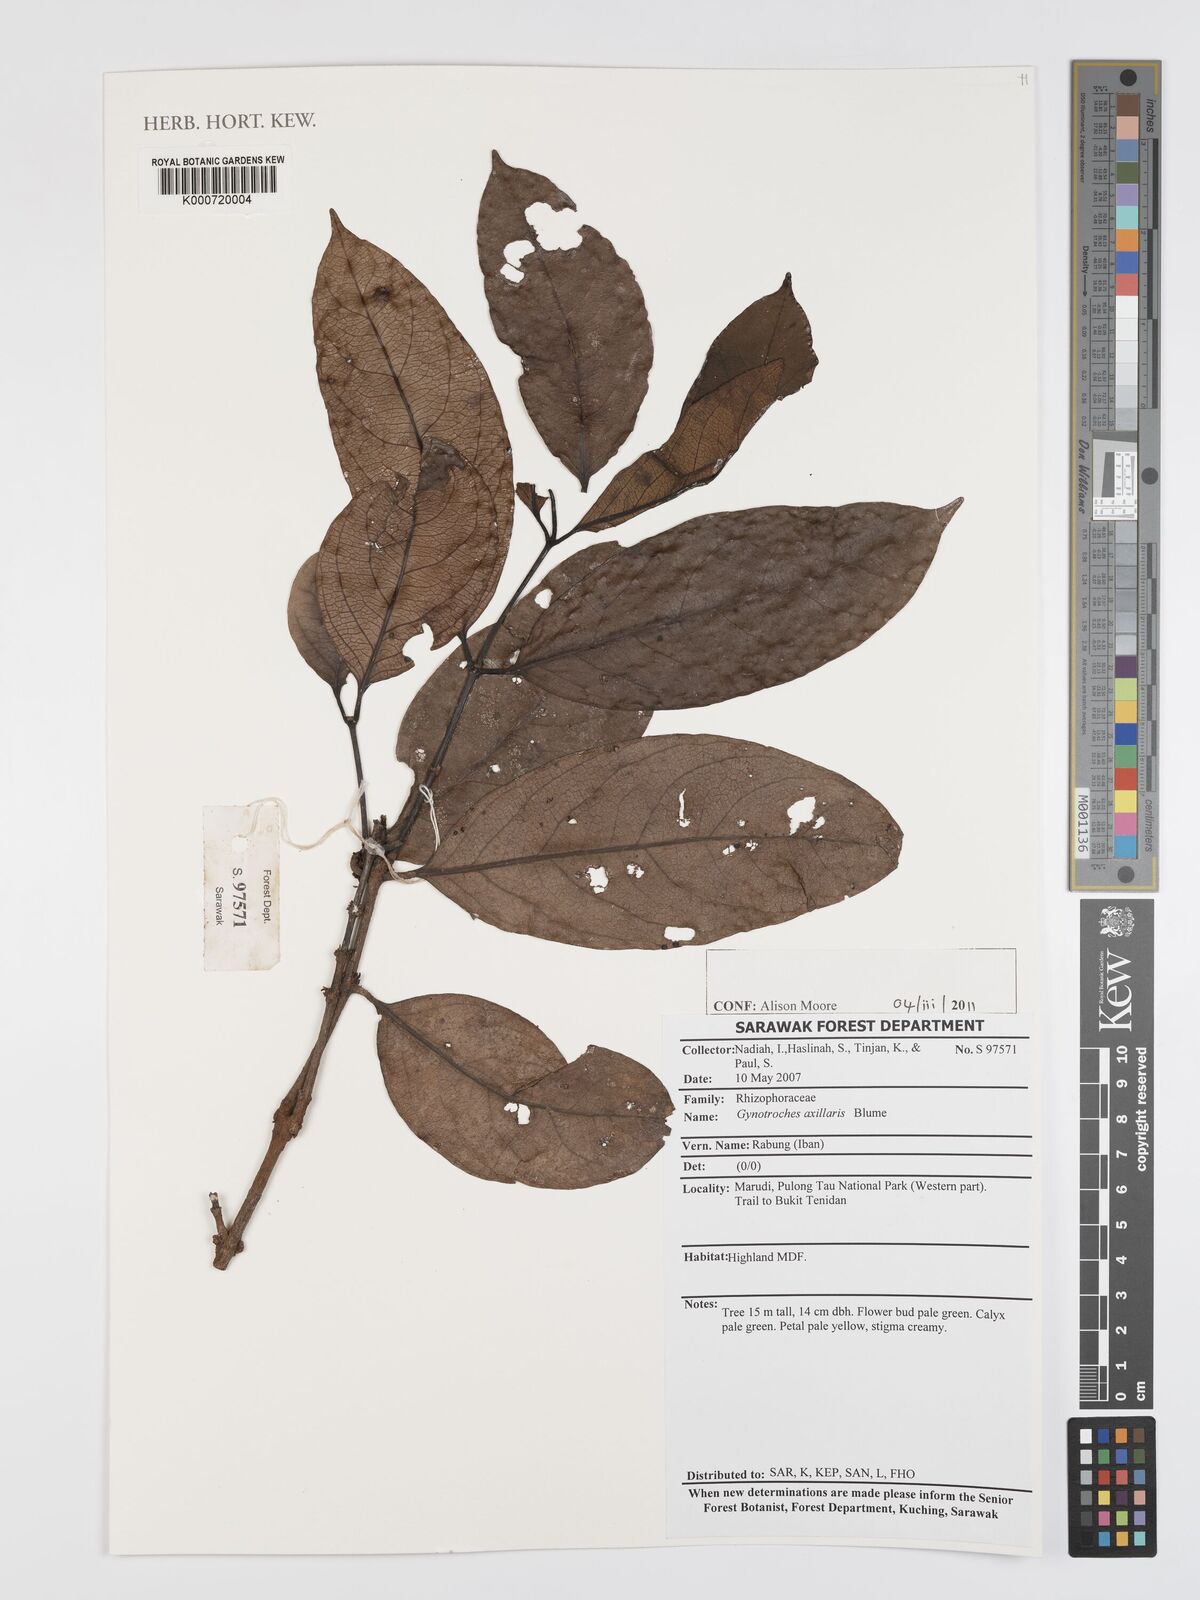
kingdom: Plantae
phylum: Tracheophyta
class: Magnoliopsida
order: Malpighiales
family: Rhizophoraceae
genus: Gynotroches
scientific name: Gynotroches axillaris
